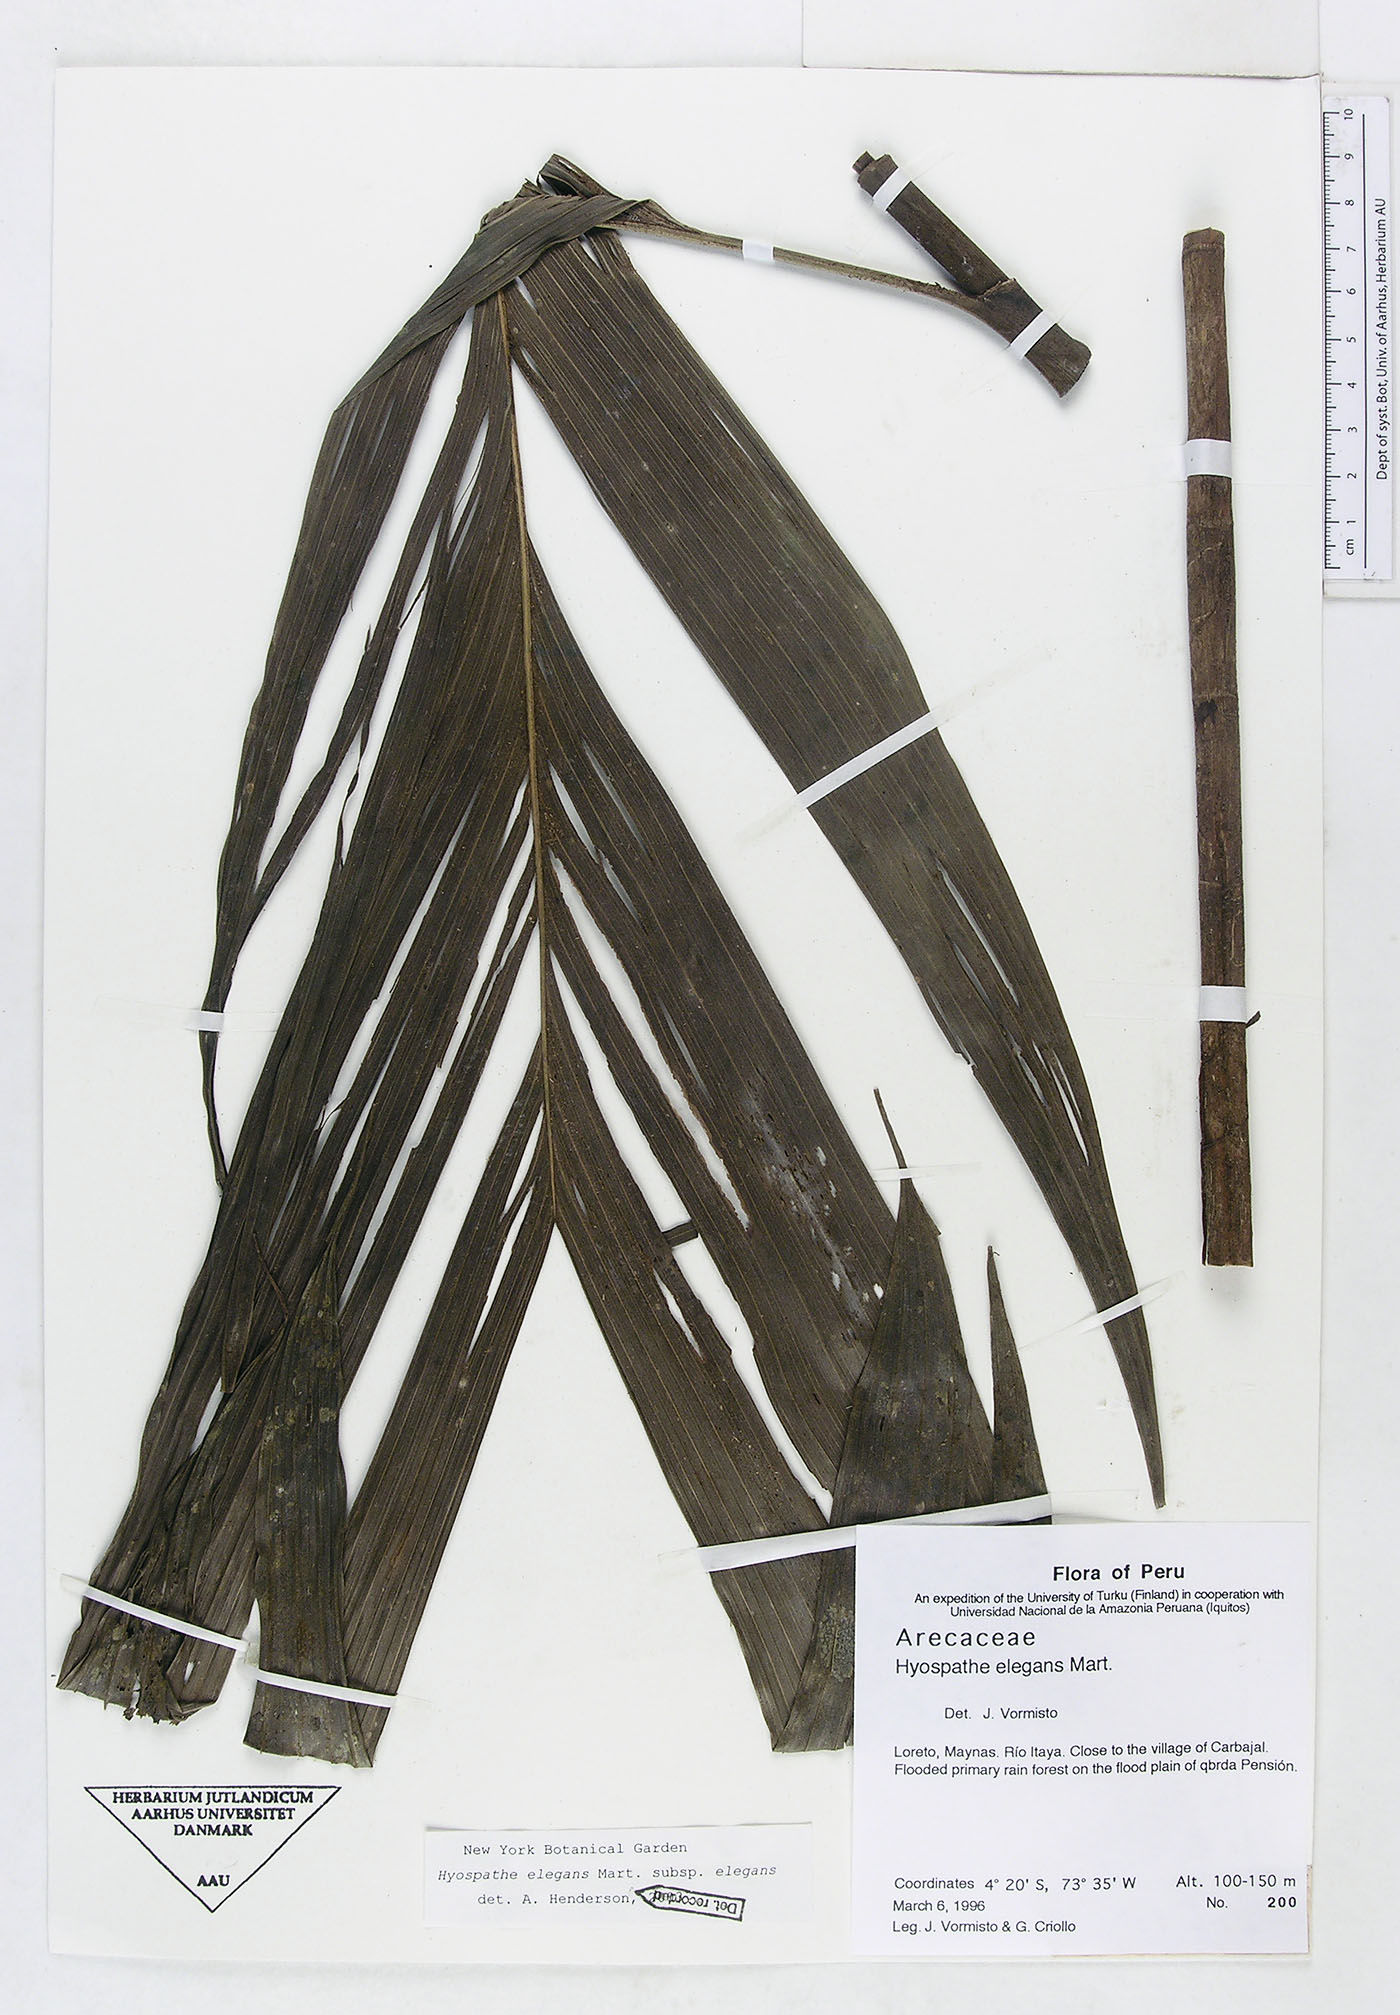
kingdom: Plantae
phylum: Tracheophyta
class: Liliopsida
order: Arecales
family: Arecaceae
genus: Hyospathe
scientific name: Hyospathe elegans
